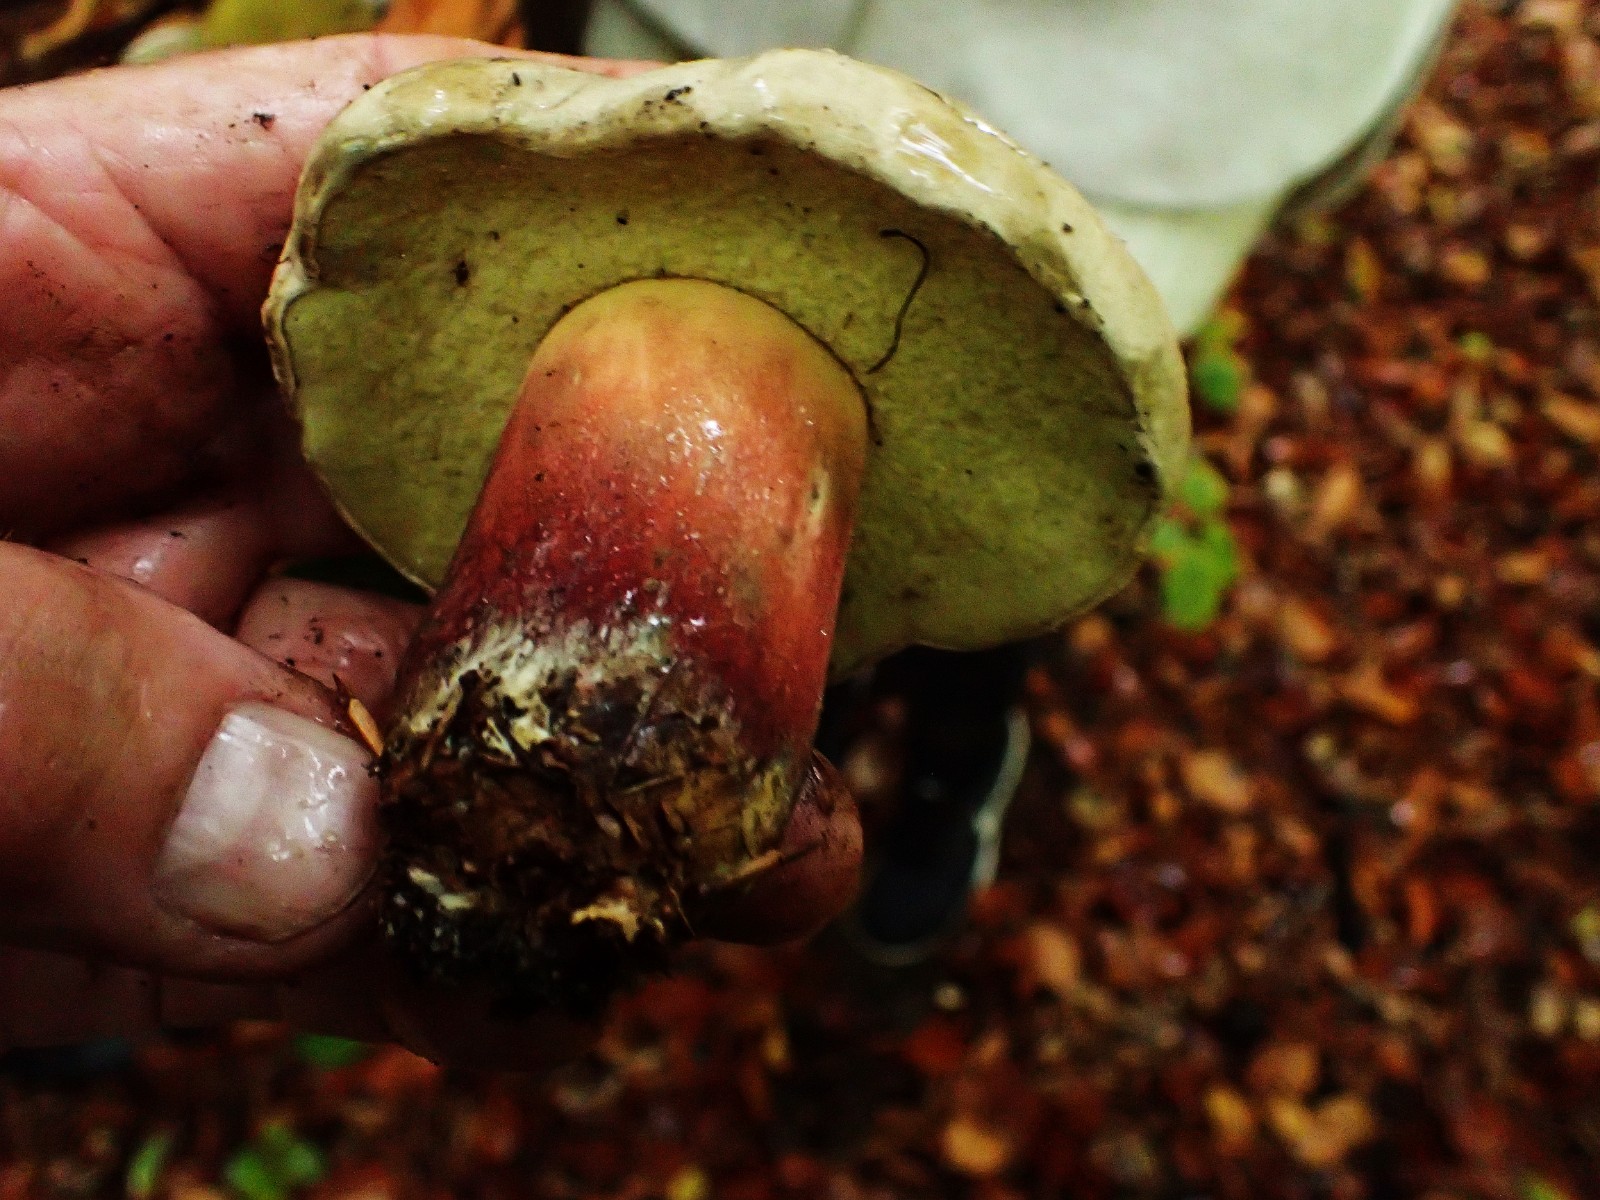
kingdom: Fungi
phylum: Basidiomycota
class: Agaricomycetes
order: Boletales
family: Boletaceae
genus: Caloboletus
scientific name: Caloboletus calopus
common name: skønfodet rørhat
